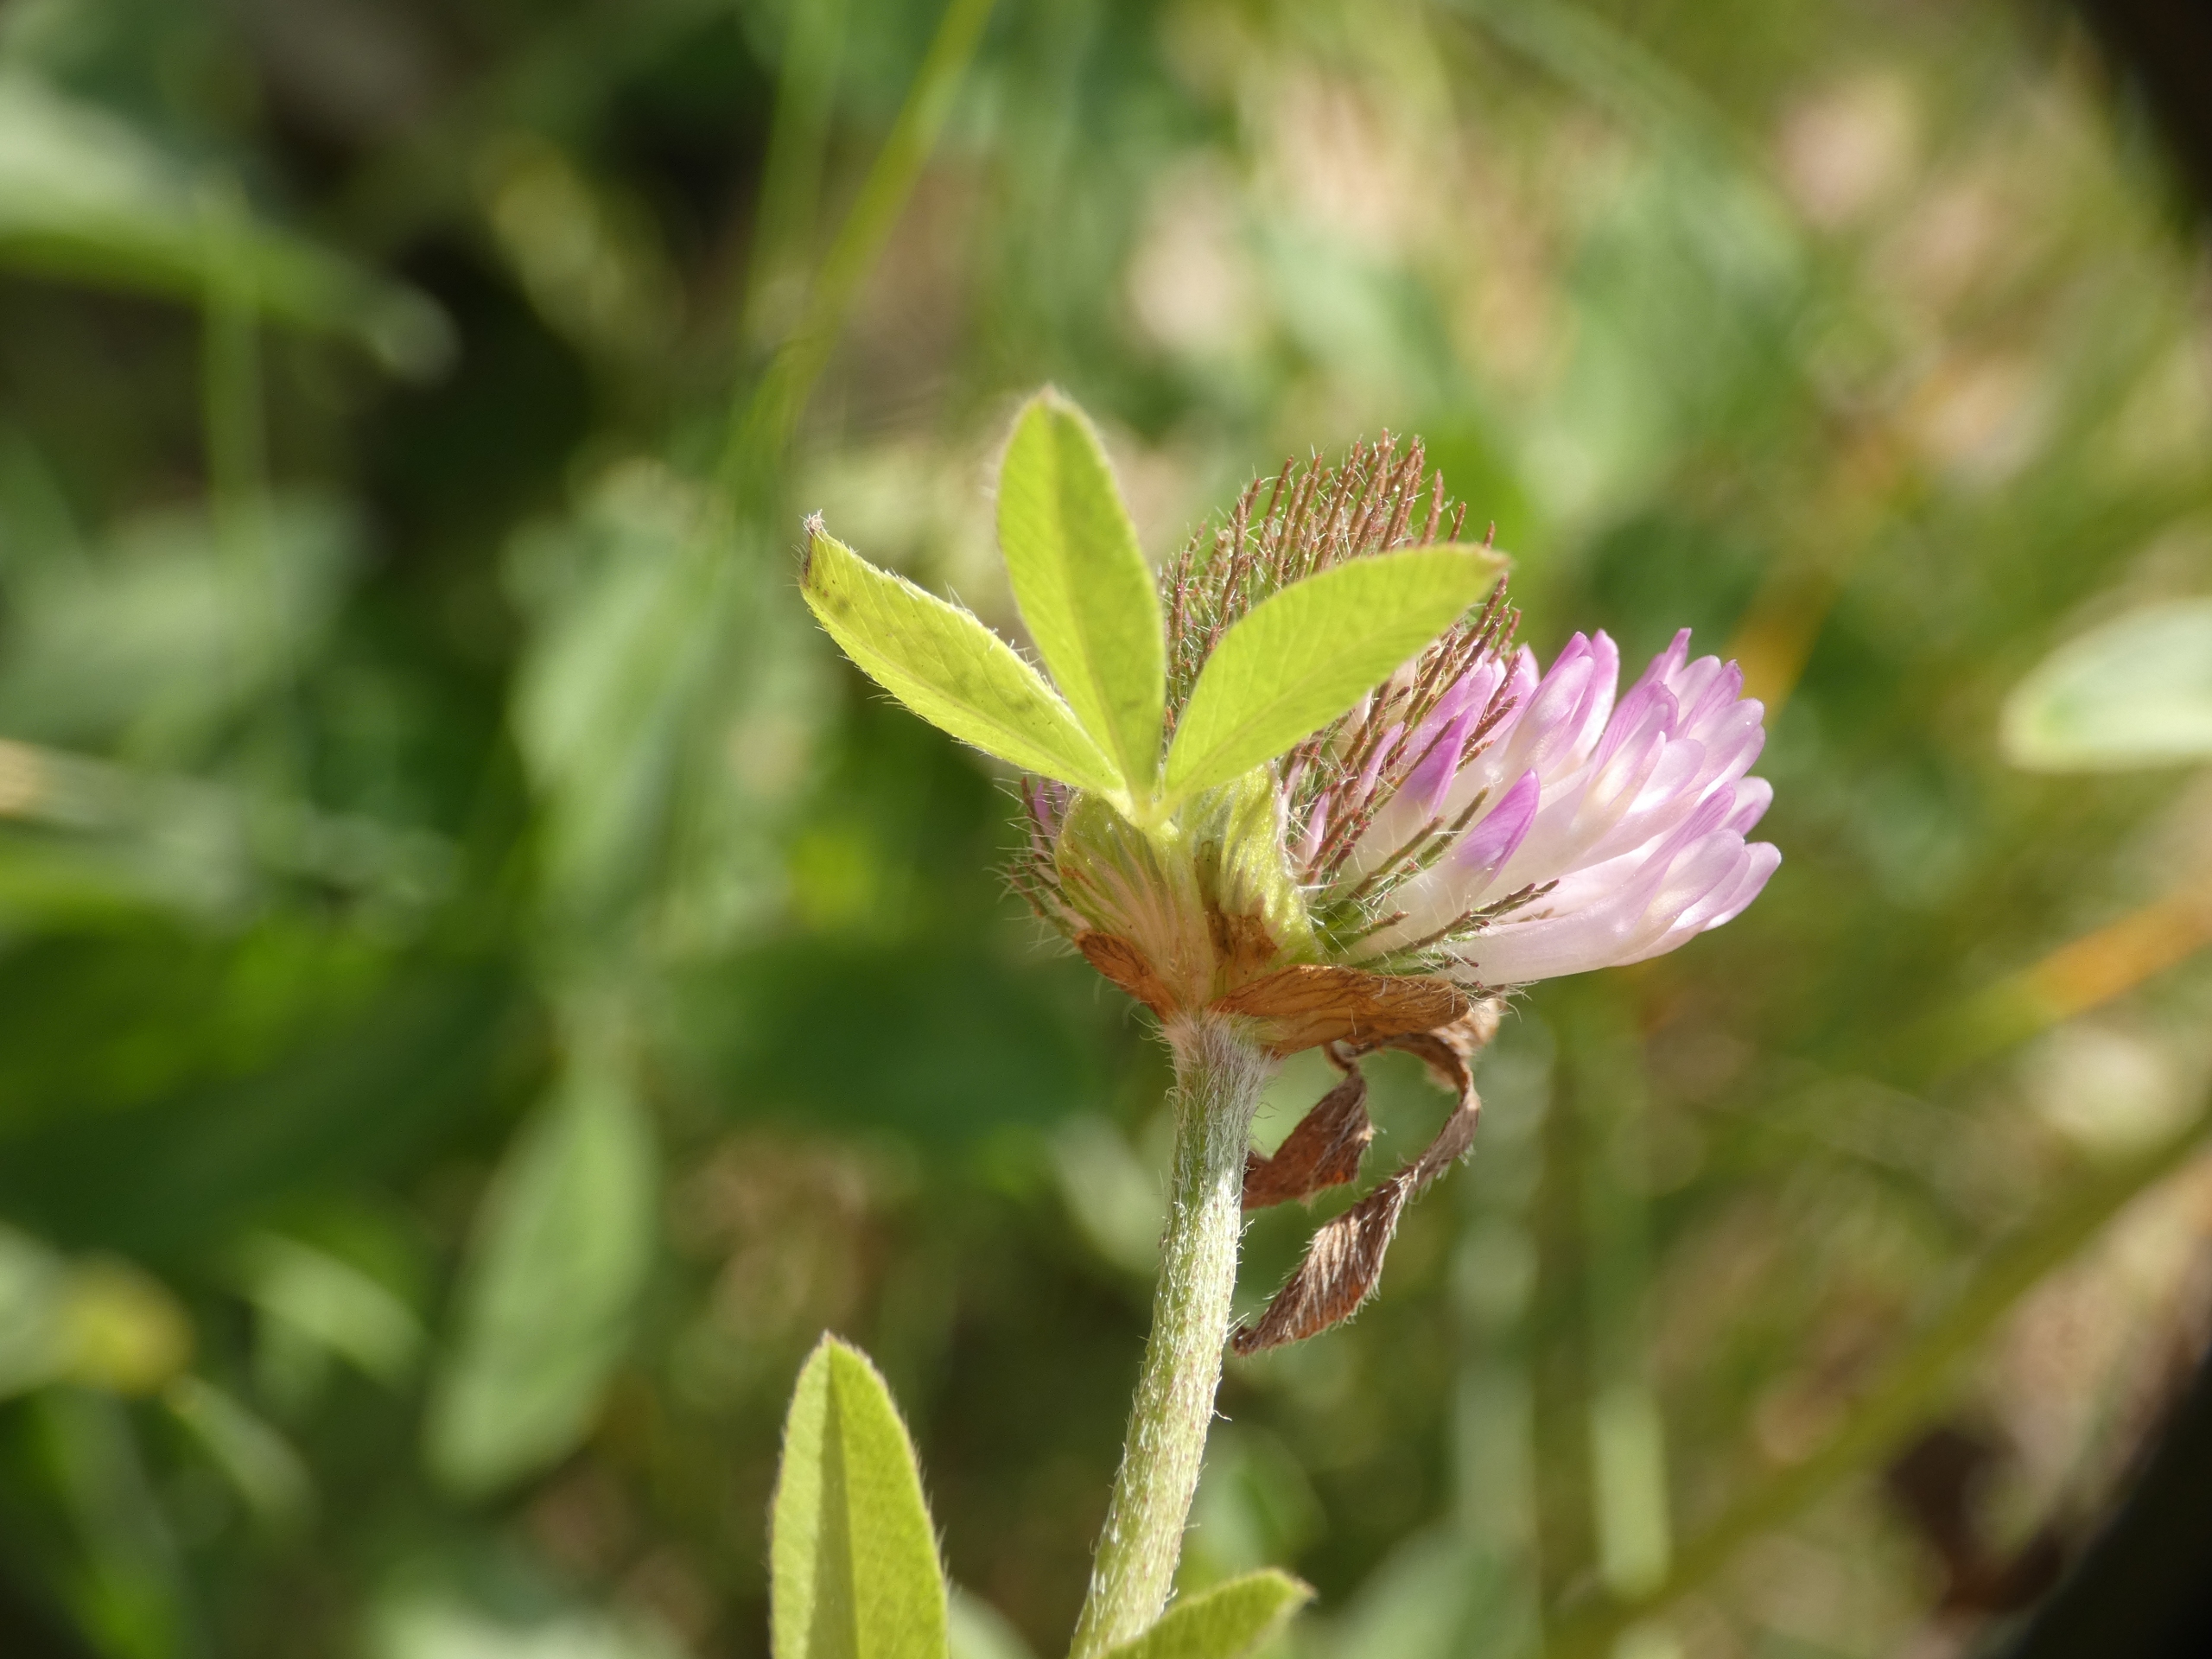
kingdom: Plantae
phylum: Tracheophyta
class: Magnoliopsida
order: Fabales
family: Fabaceae
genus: Trifolium
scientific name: Trifolium pratense
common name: Rød-kløver
